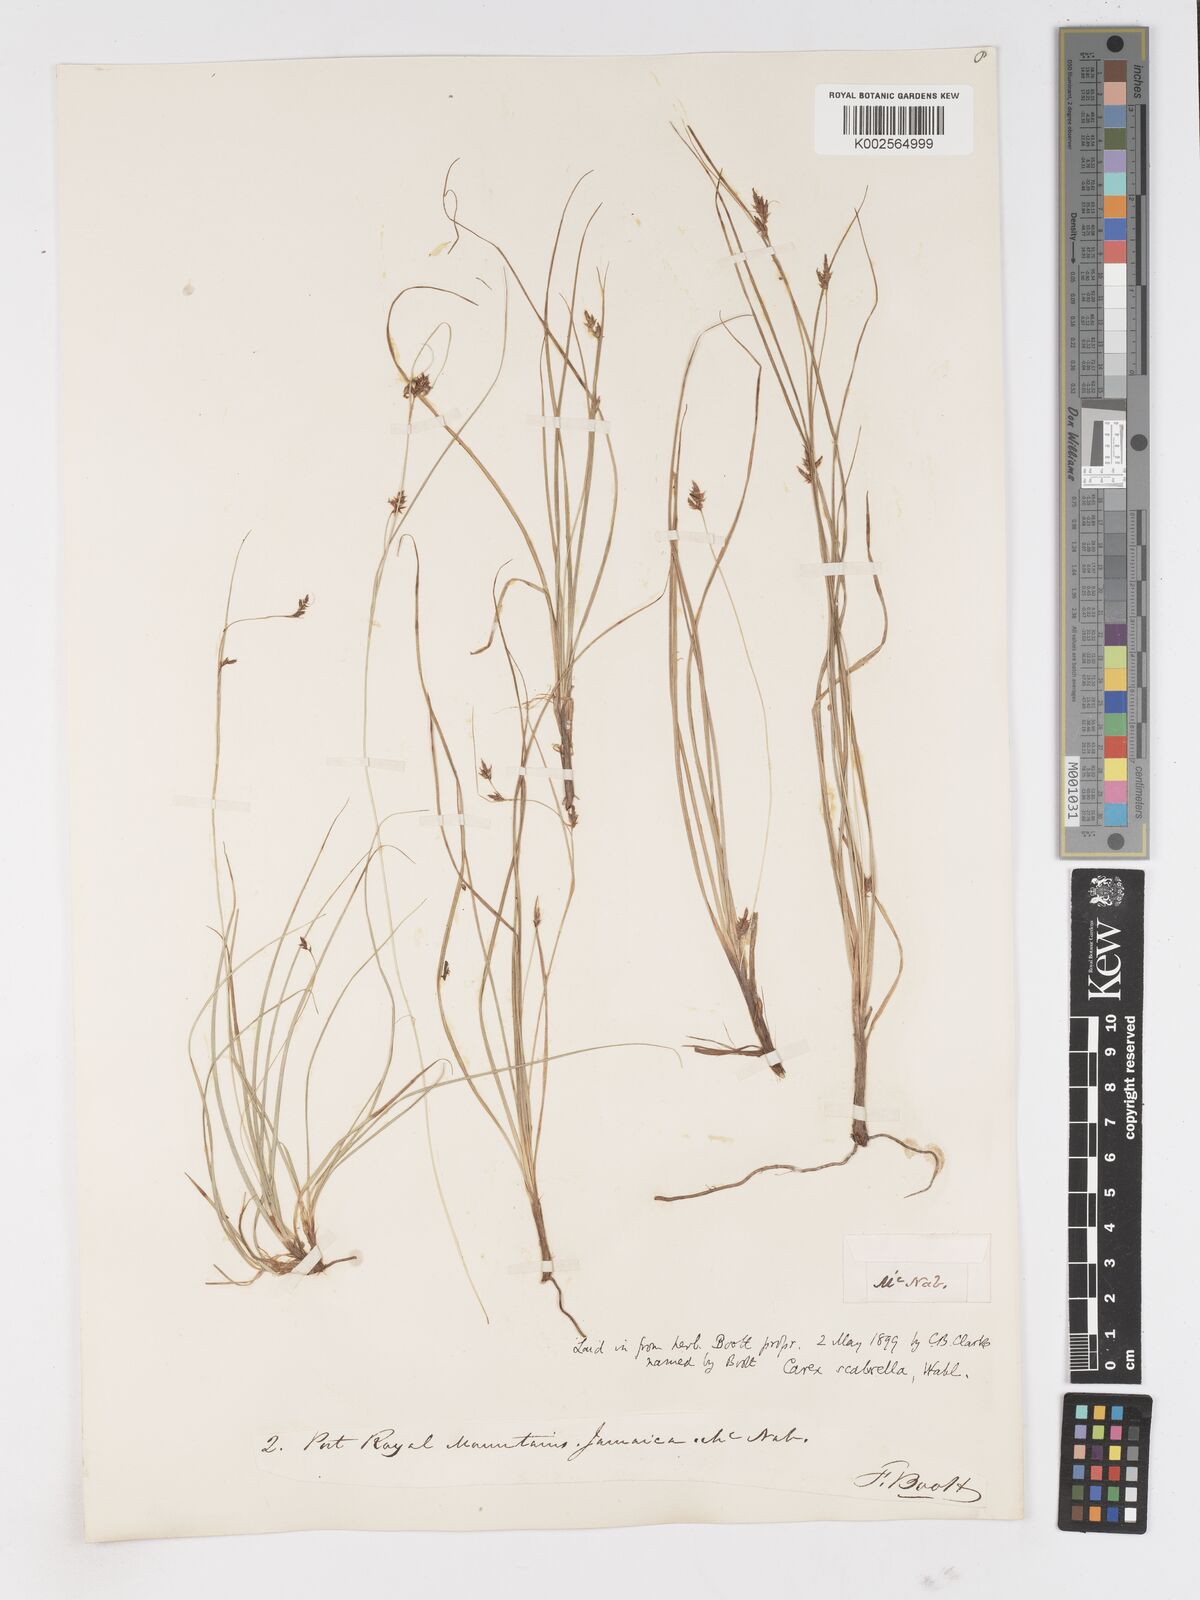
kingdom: Plantae
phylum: Tracheophyta
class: Liliopsida
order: Poales
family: Cyperaceae
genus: Carex
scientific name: Carex
